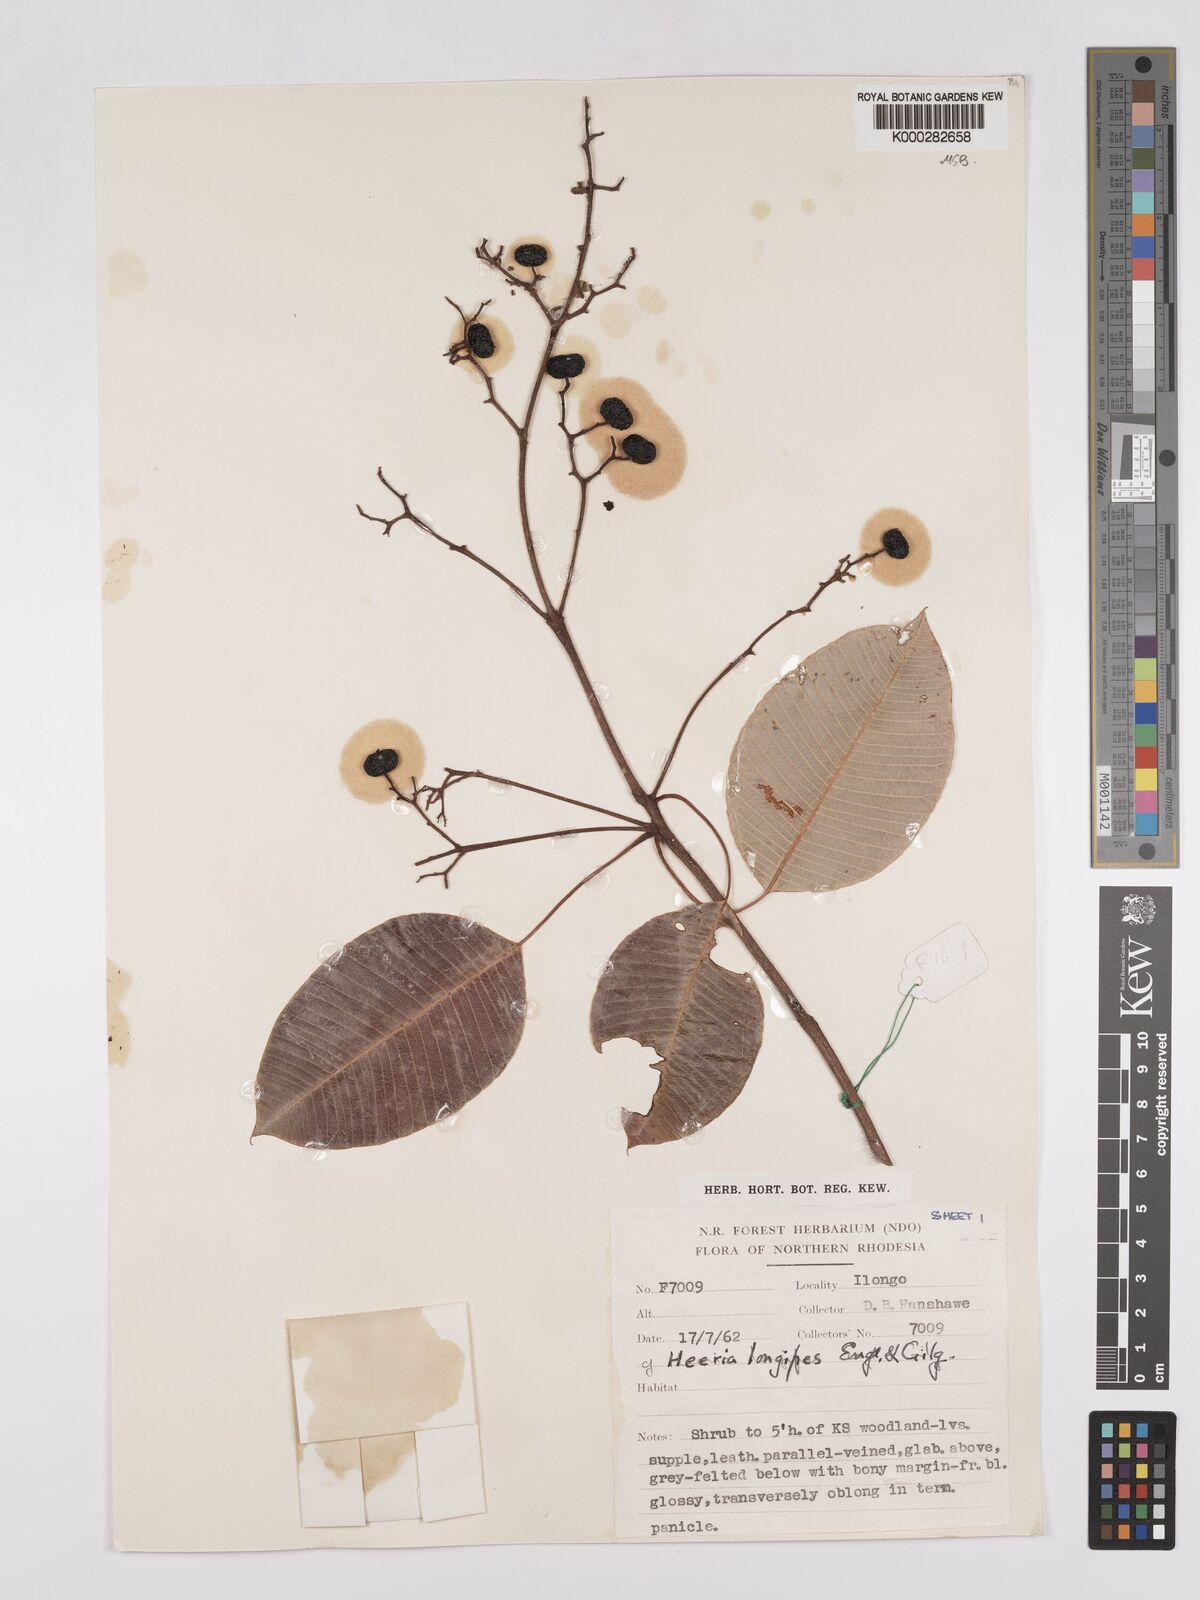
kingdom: Plantae
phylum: Tracheophyta
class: Magnoliopsida
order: Sapindales
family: Anacardiaceae
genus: Ozoroa
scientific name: Ozoroa longipes
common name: Round-leaved resin tree
